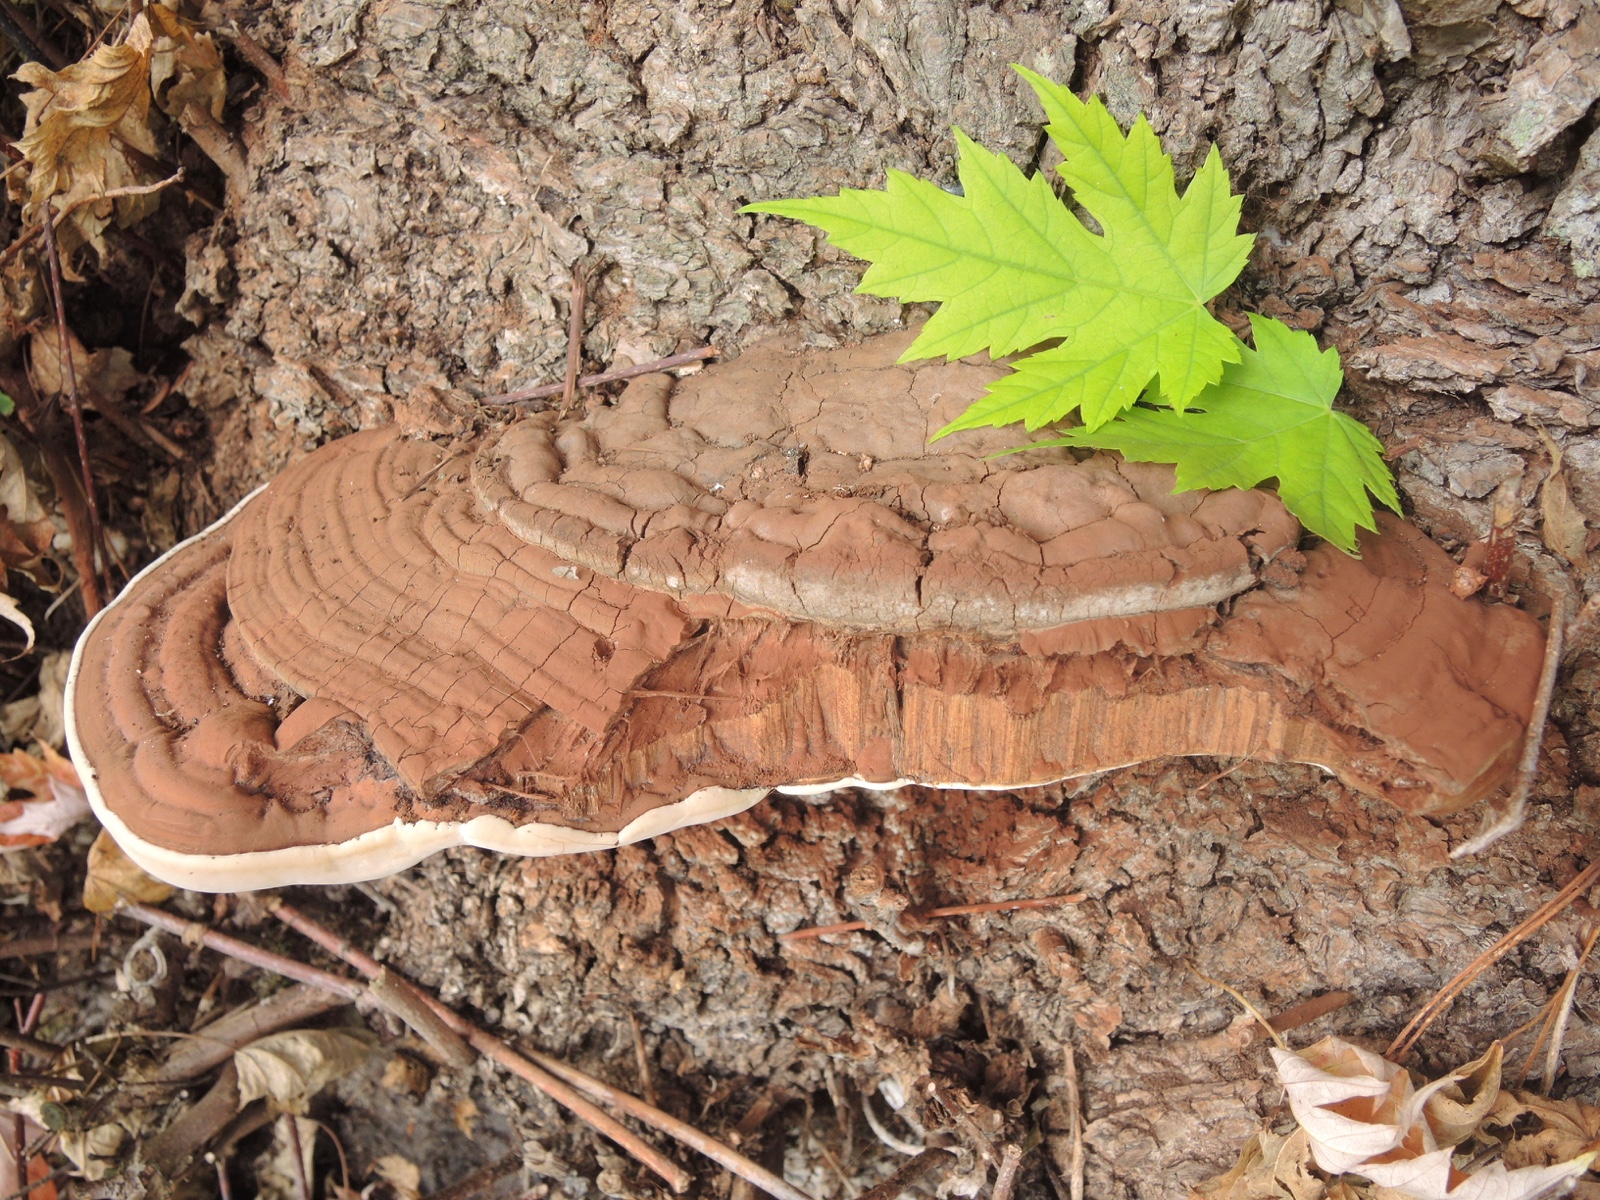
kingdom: Fungi
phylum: Basidiomycota
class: Agaricomycetes
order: Polyporales
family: Polyporaceae
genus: Ganoderma
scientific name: Ganoderma adspersum
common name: grov lakporesvamp
